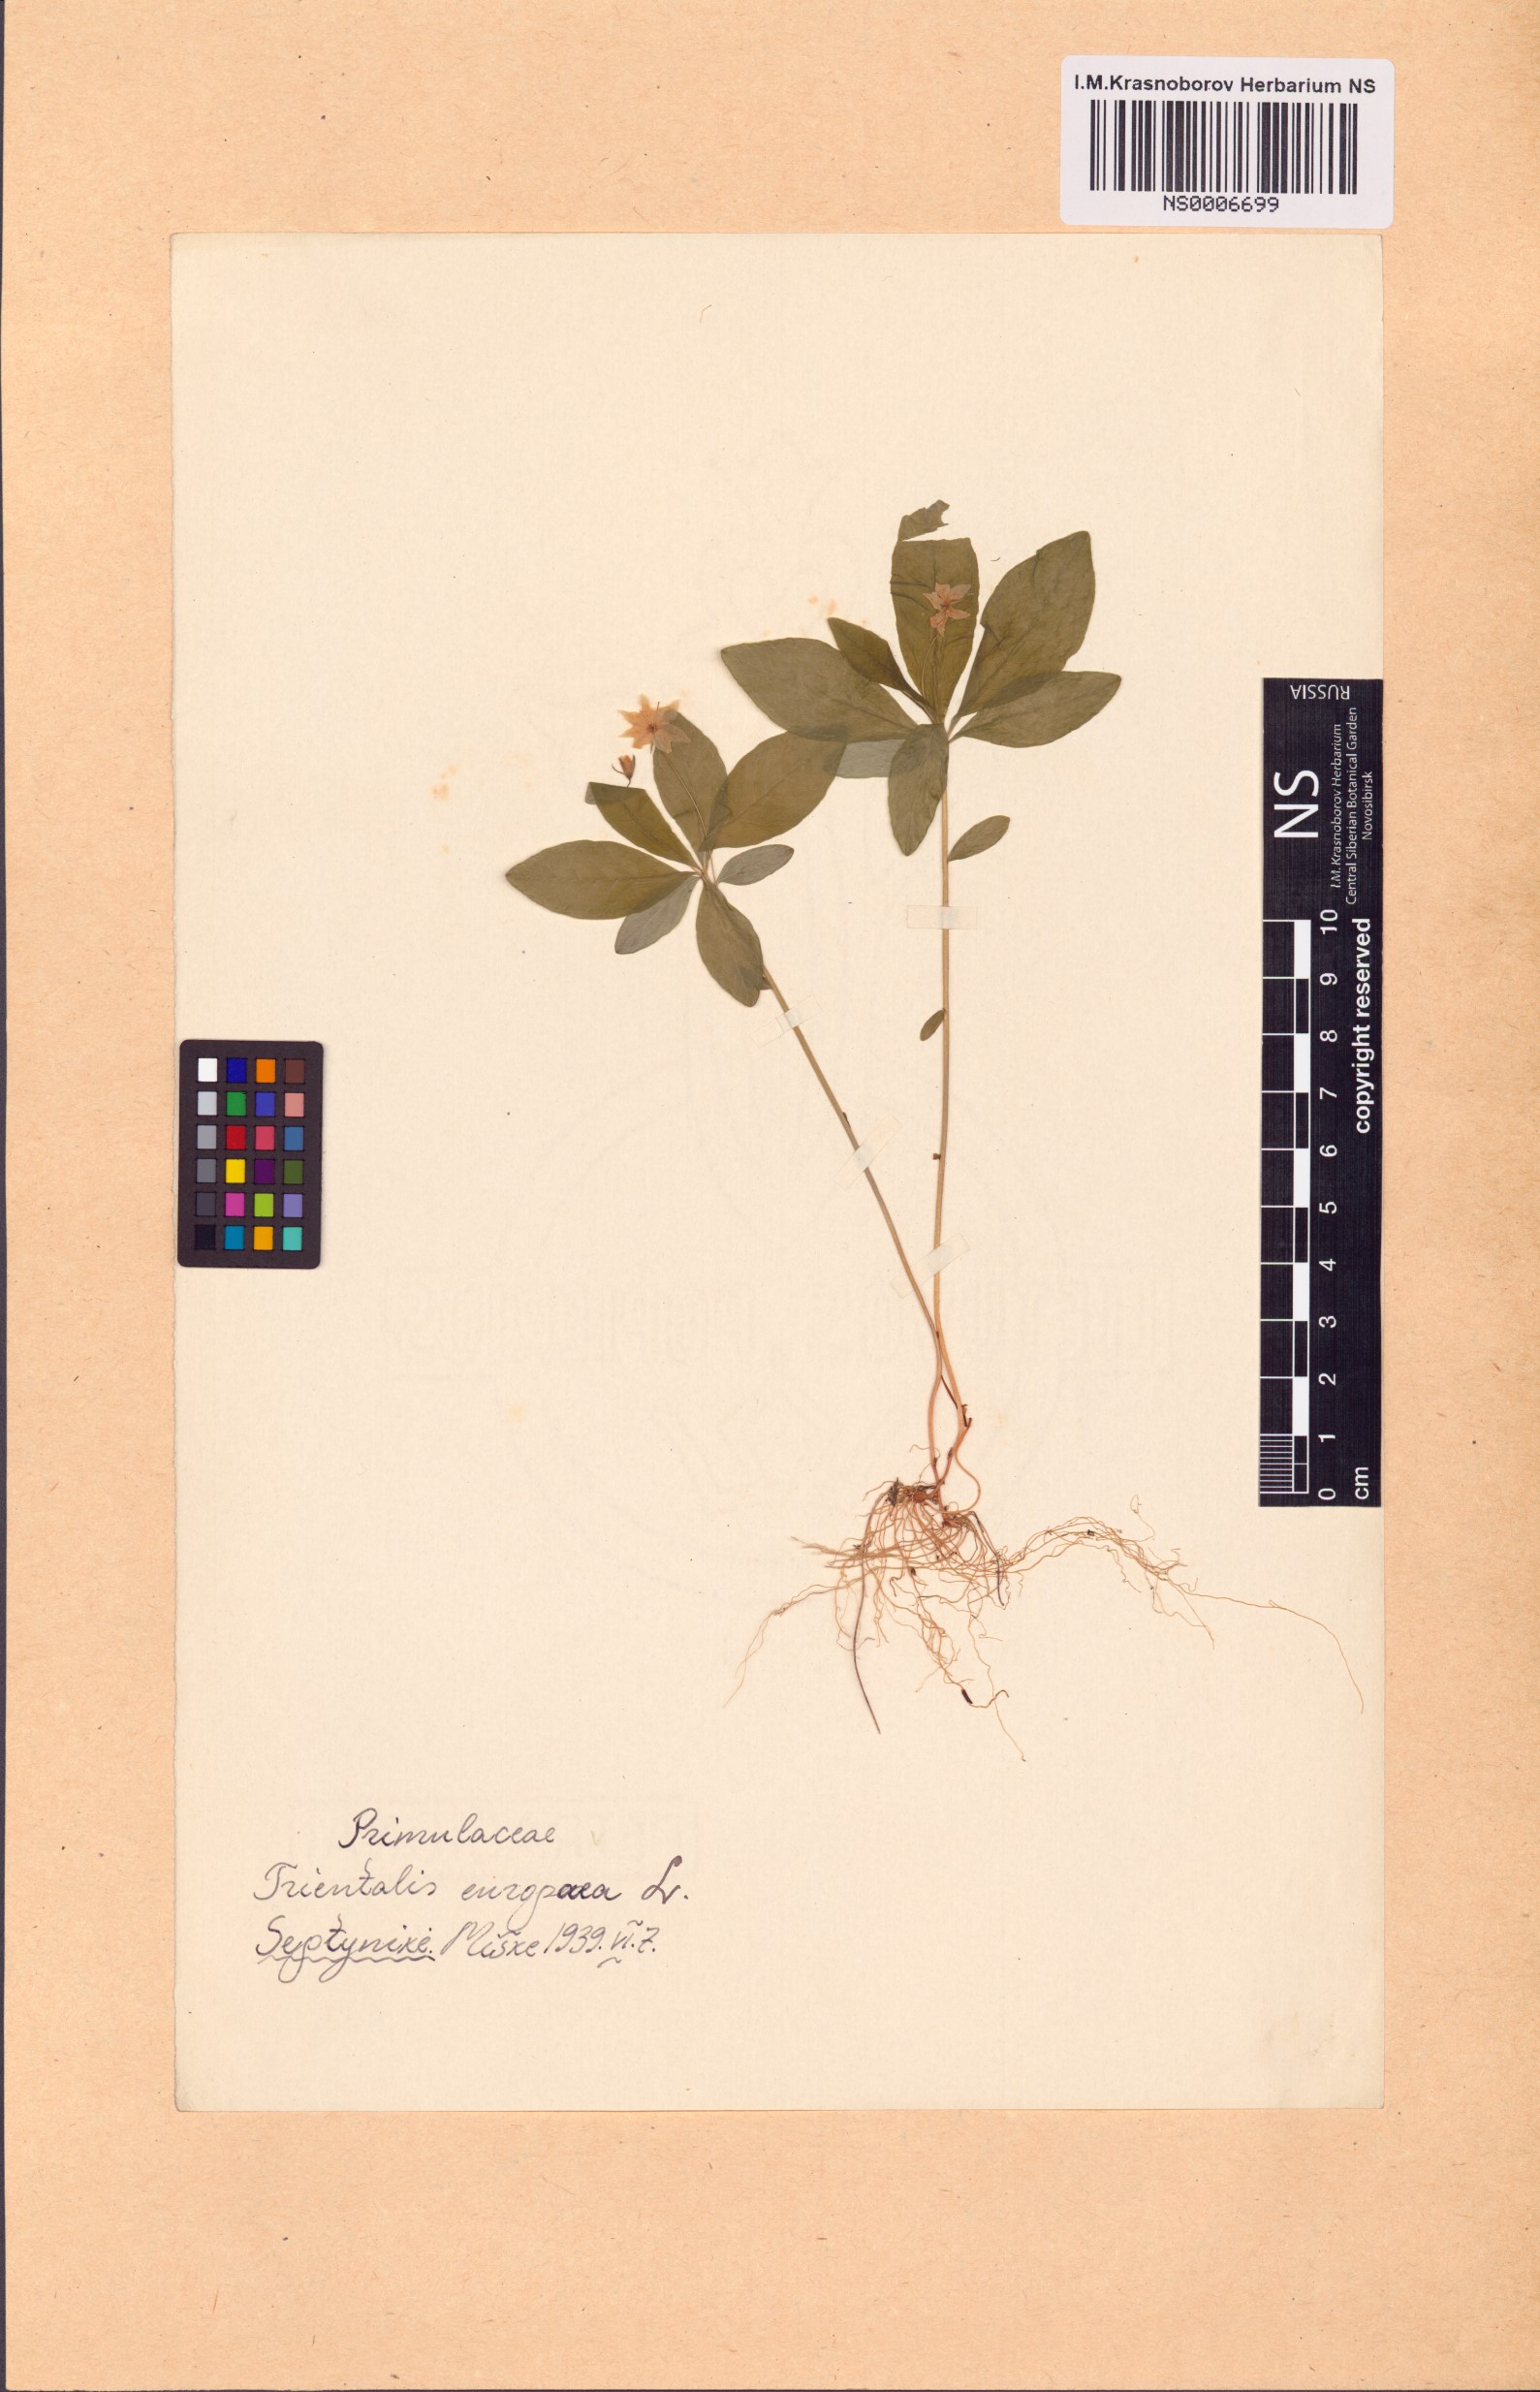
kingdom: Plantae
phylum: Tracheophyta
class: Magnoliopsida
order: Ericales
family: Primulaceae
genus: Lysimachia
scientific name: Lysimachia europaea
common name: Arctic starflower
